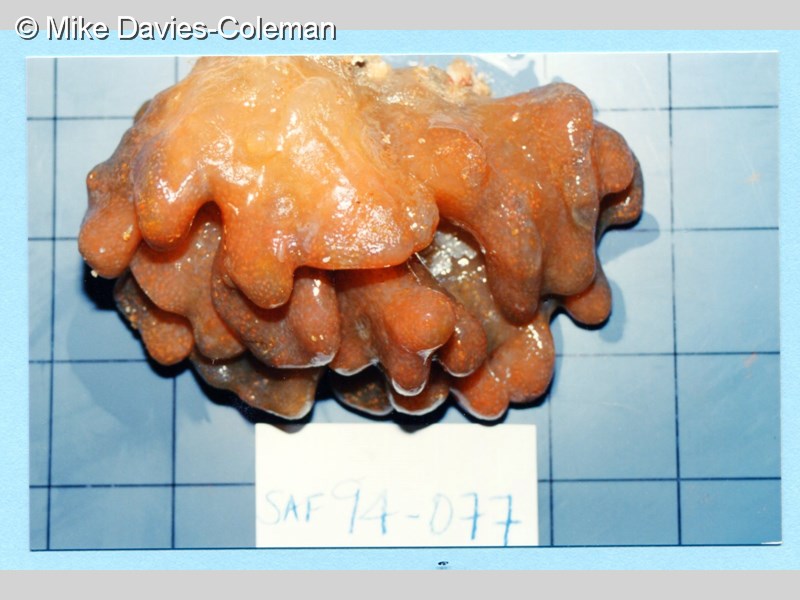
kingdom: Animalia
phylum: Chordata
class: Ascidiacea
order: Aplousobranchia
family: Pseudodistomidae
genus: Pseudodistoma
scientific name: Pseudodistoma
